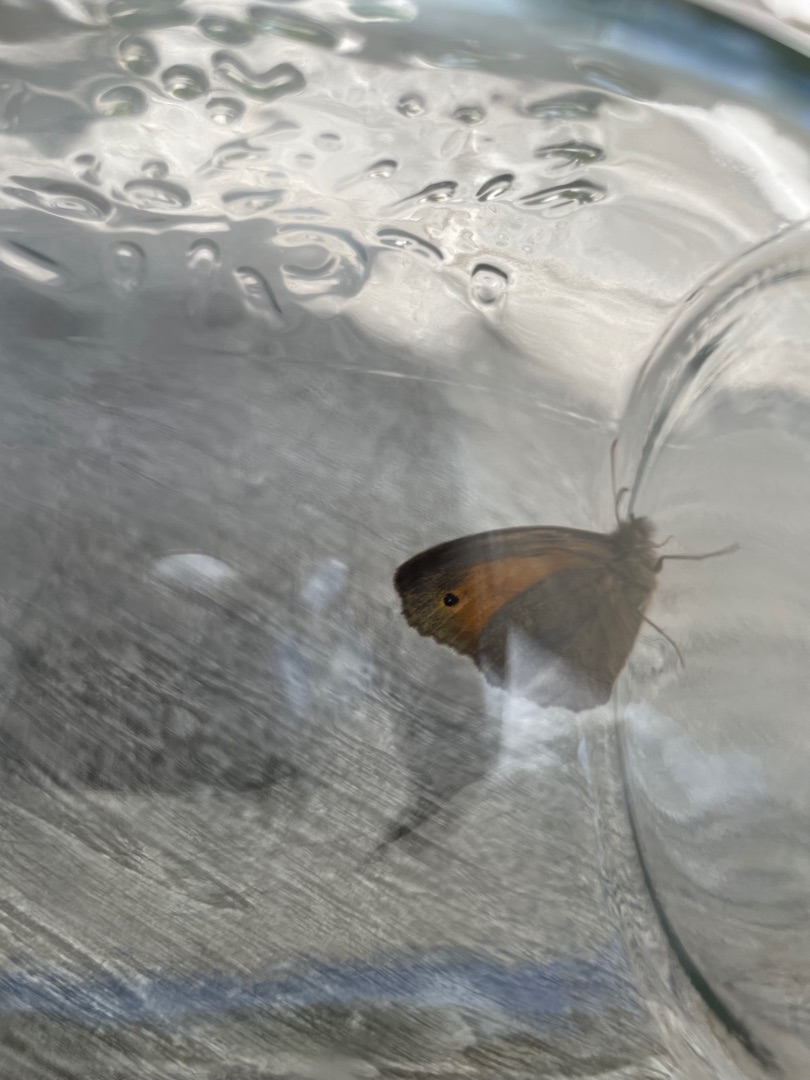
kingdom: Animalia
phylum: Arthropoda
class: Insecta
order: Lepidoptera
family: Nymphalidae
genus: Maniola
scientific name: Maniola jurtina
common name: Græsrandøje
